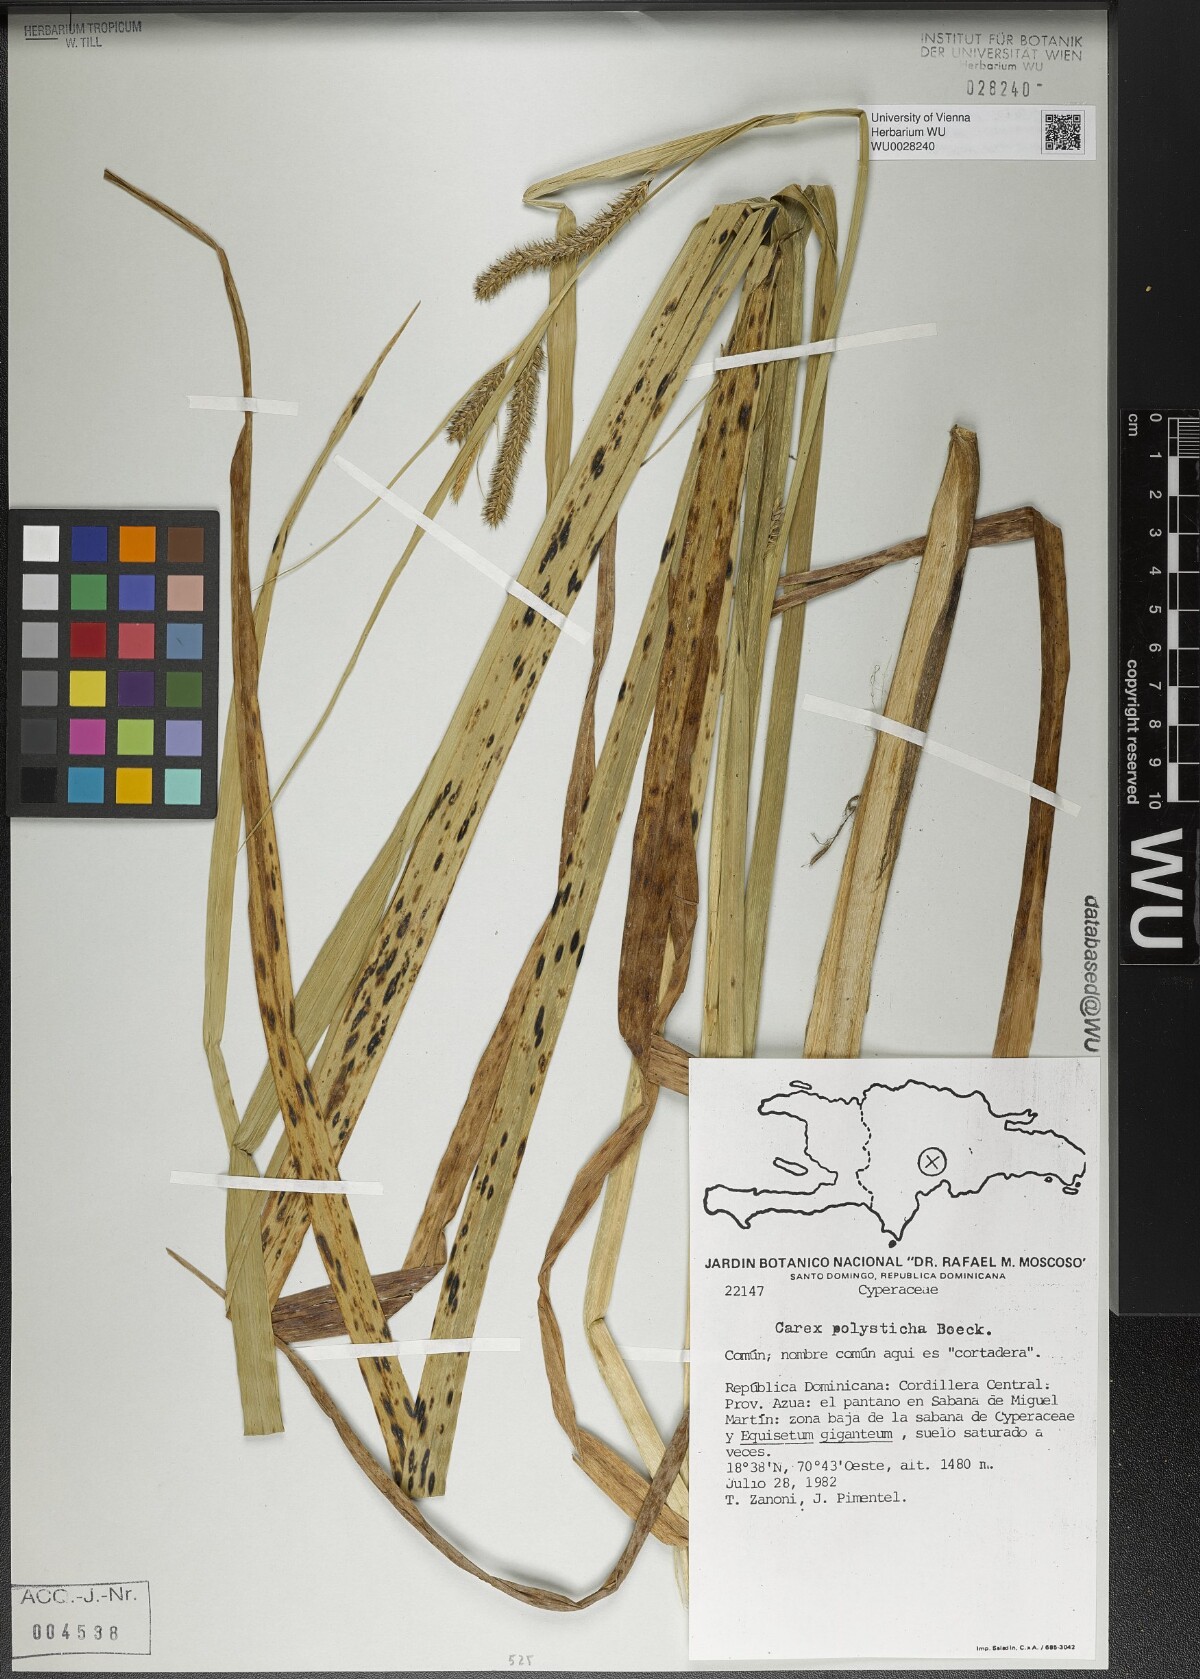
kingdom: Plantae
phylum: Tracheophyta
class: Liliopsida
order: Poales
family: Cyperaceae
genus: Carex
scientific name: Carex polysticha
